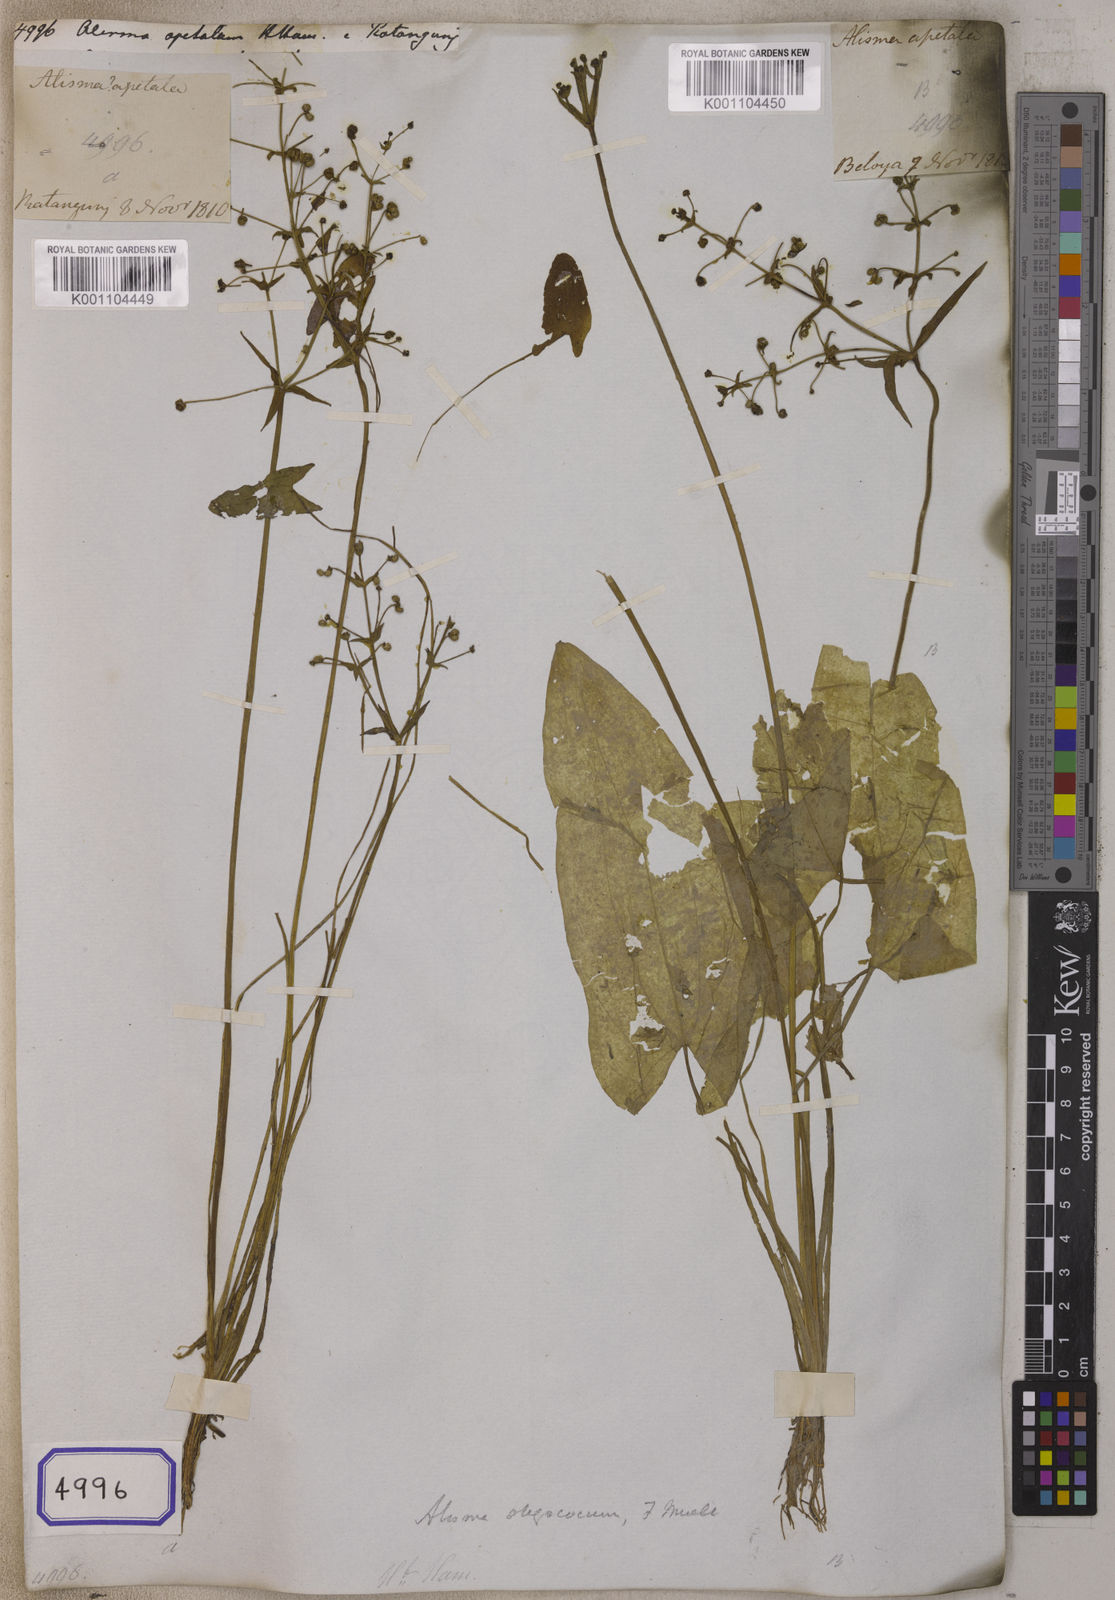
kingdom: Plantae
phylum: Tracheophyta
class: Liliopsida
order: Alismatales
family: Alismataceae
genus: Alisma
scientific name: Alisma
